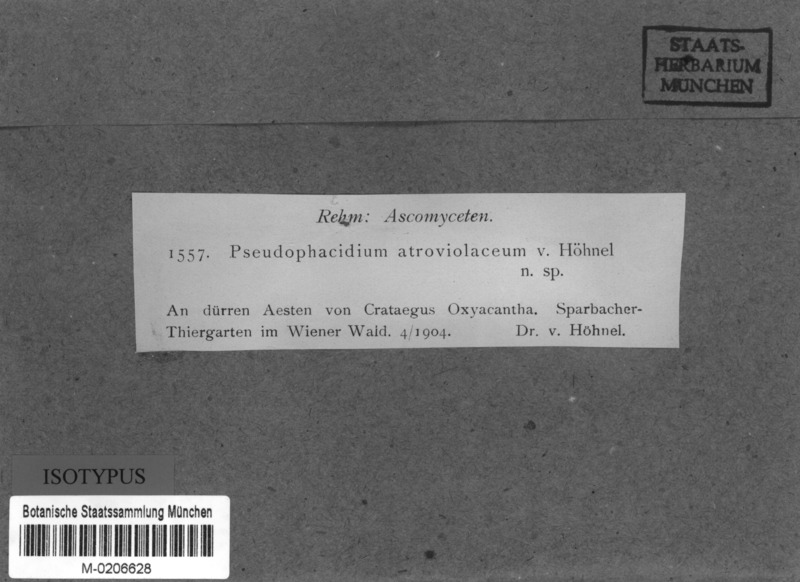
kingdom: Fungi
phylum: Ascomycota
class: Leotiomycetes
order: Phacidiales
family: Phacidiaceae
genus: Pseudophacidium
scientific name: Pseudophacidium
